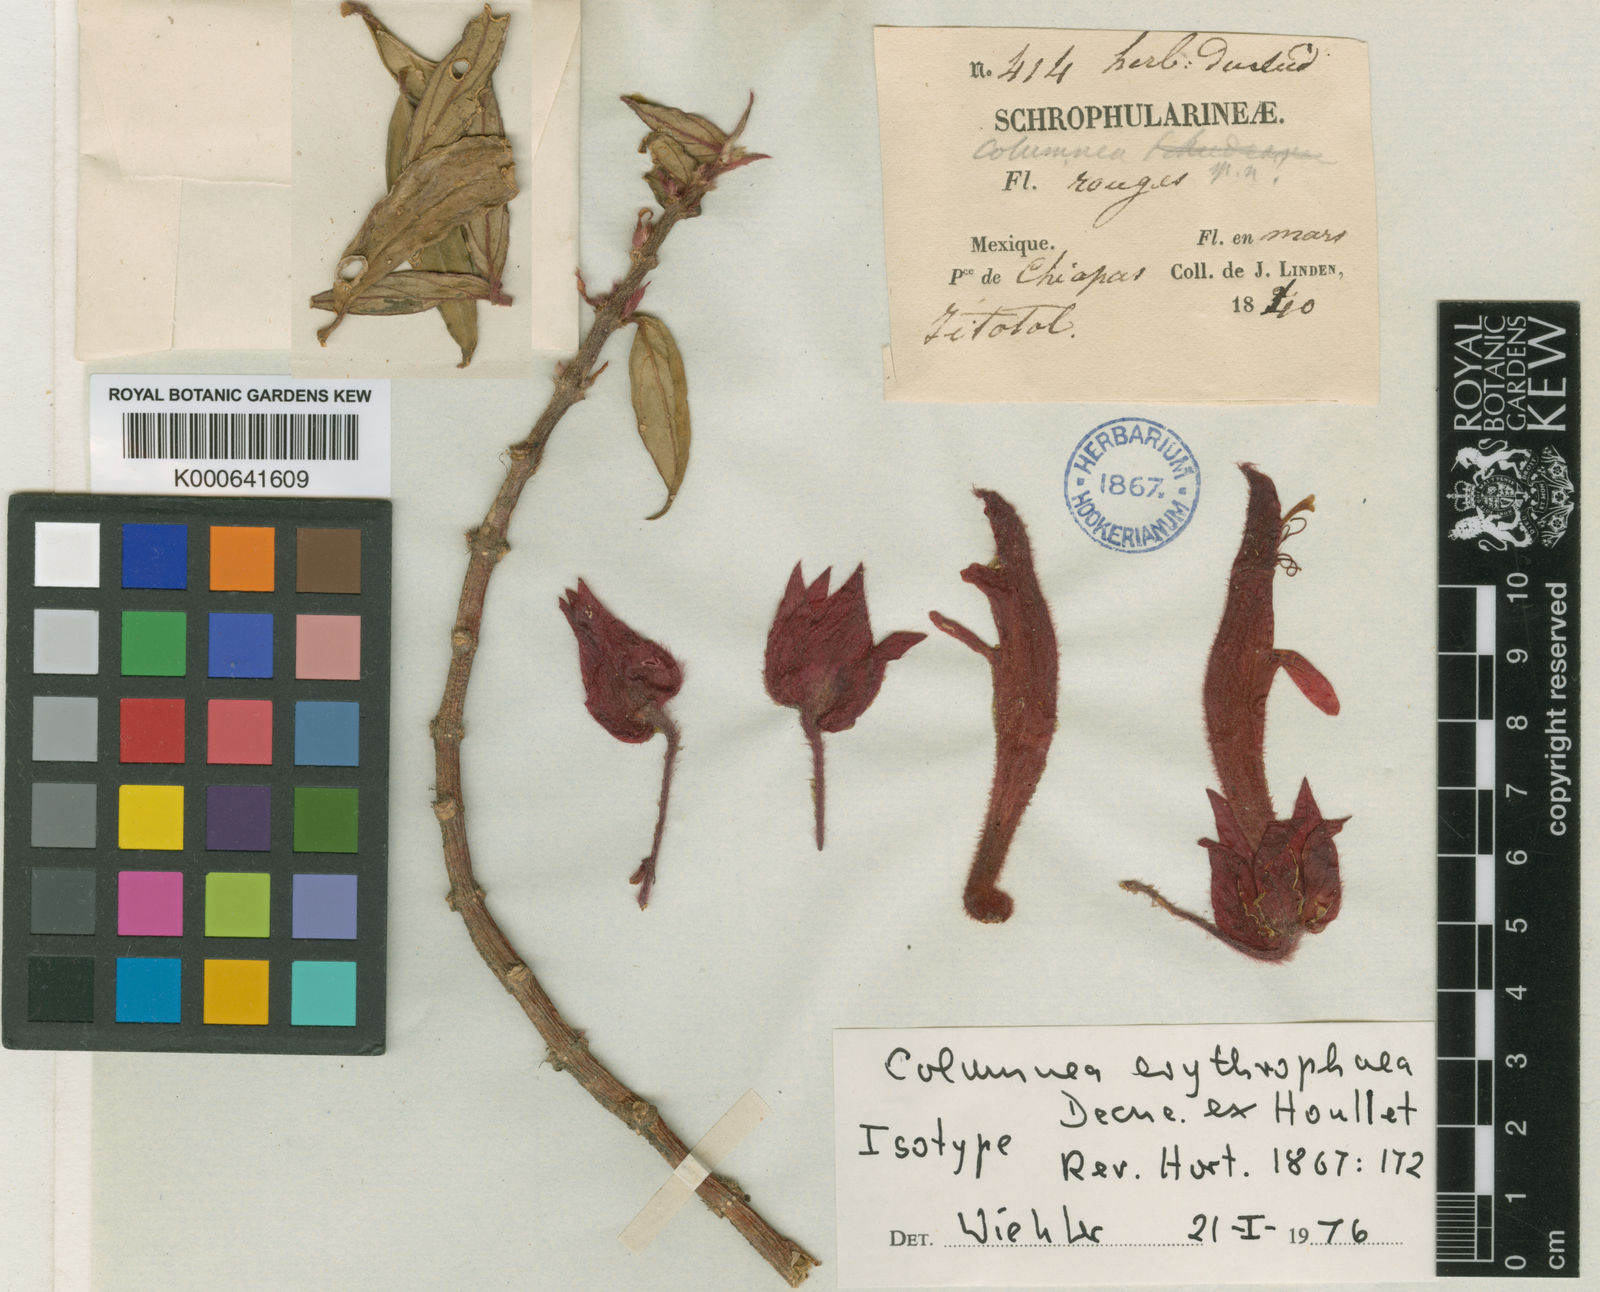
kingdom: Plantae
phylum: Tracheophyta
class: Magnoliopsida
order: Lamiales
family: Gesneriaceae
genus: Columnea
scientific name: Columnea erythrophaea
